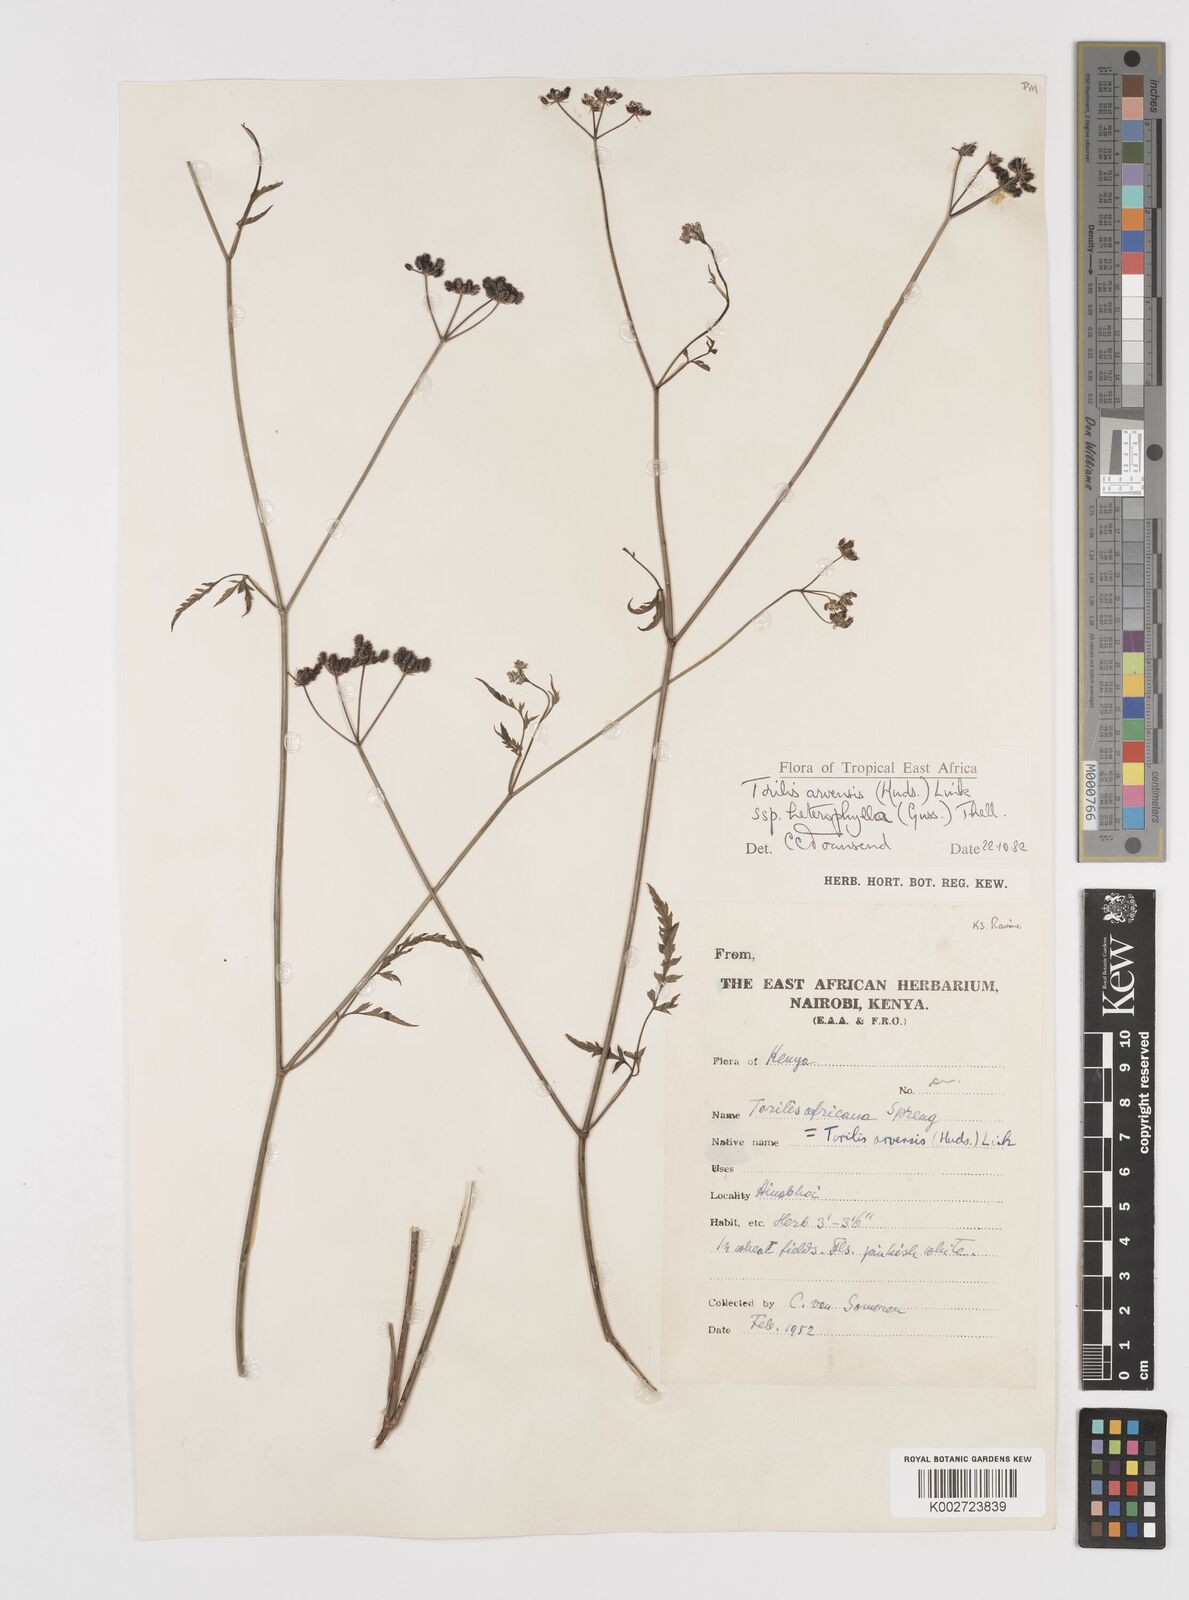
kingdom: Plantae
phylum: Tracheophyta
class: Magnoliopsida
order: Apiales
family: Apiaceae
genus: Torilis
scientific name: Torilis arvensis
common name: Spreading hedge-parsley
